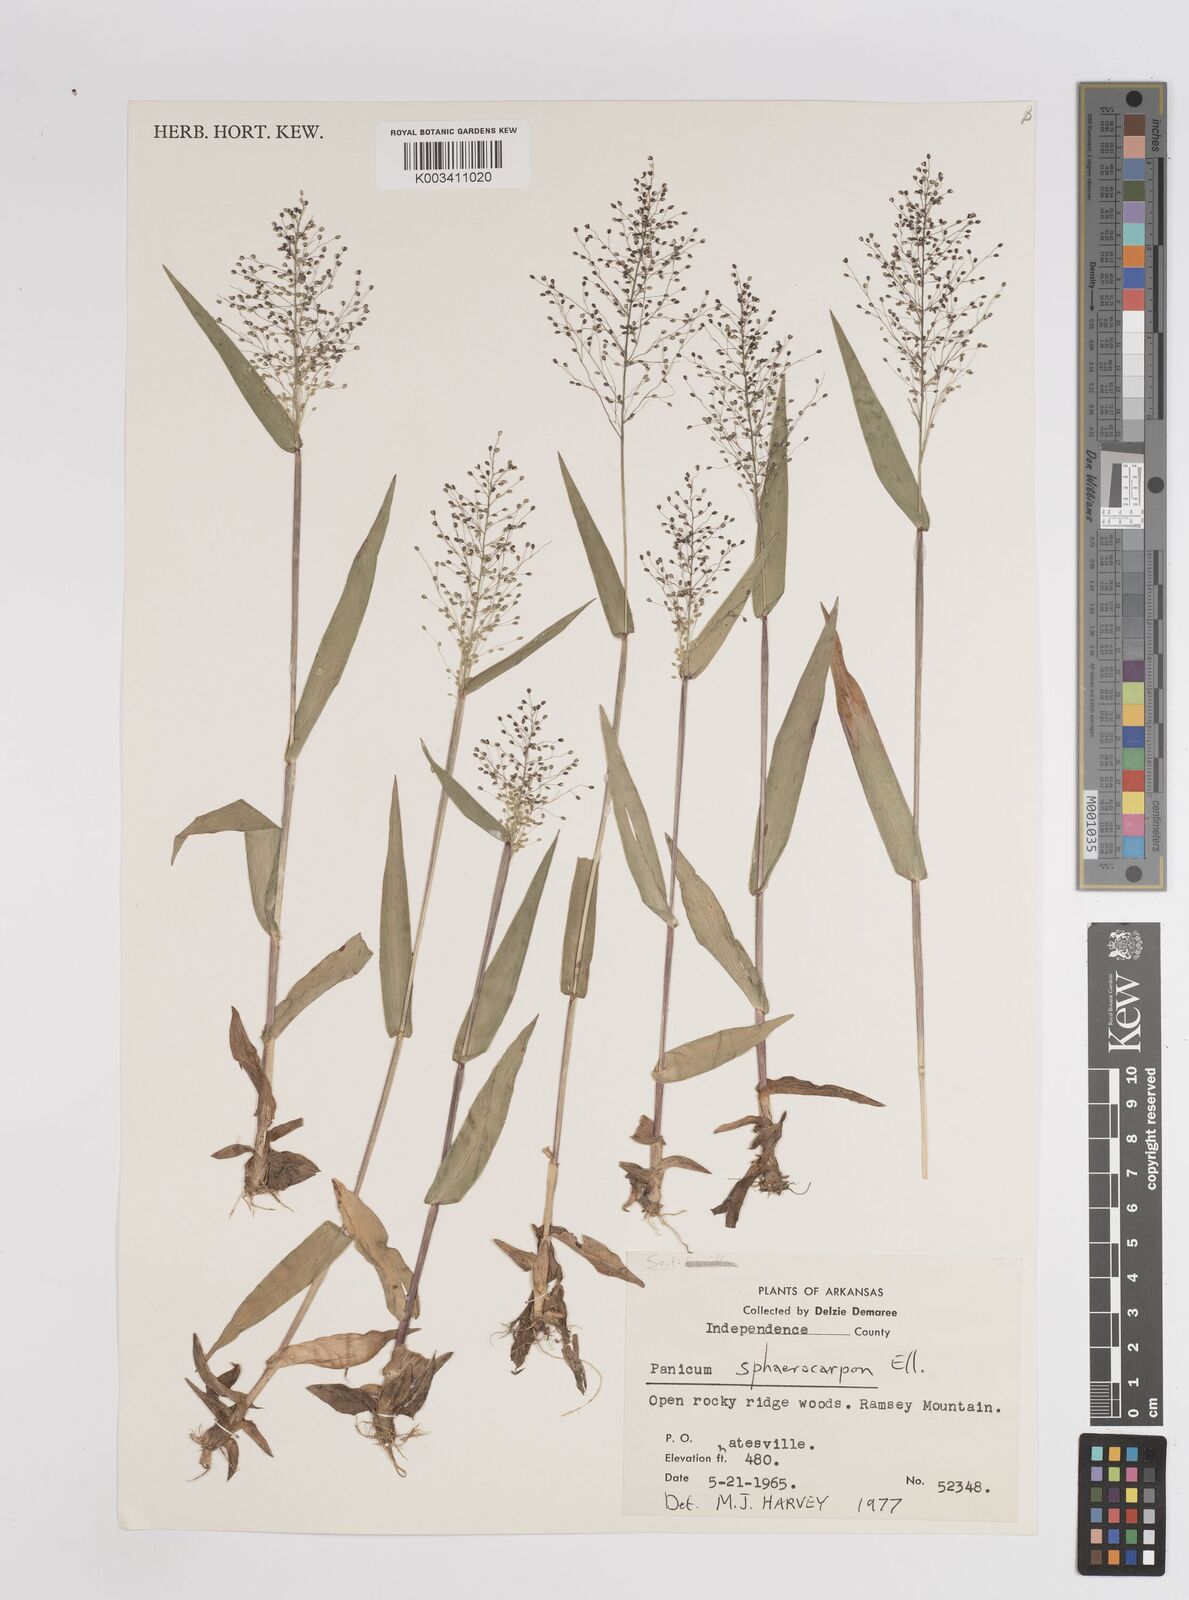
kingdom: Plantae
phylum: Tracheophyta
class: Liliopsida
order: Poales
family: Poaceae
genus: Setaria
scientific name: Setaria tenax
